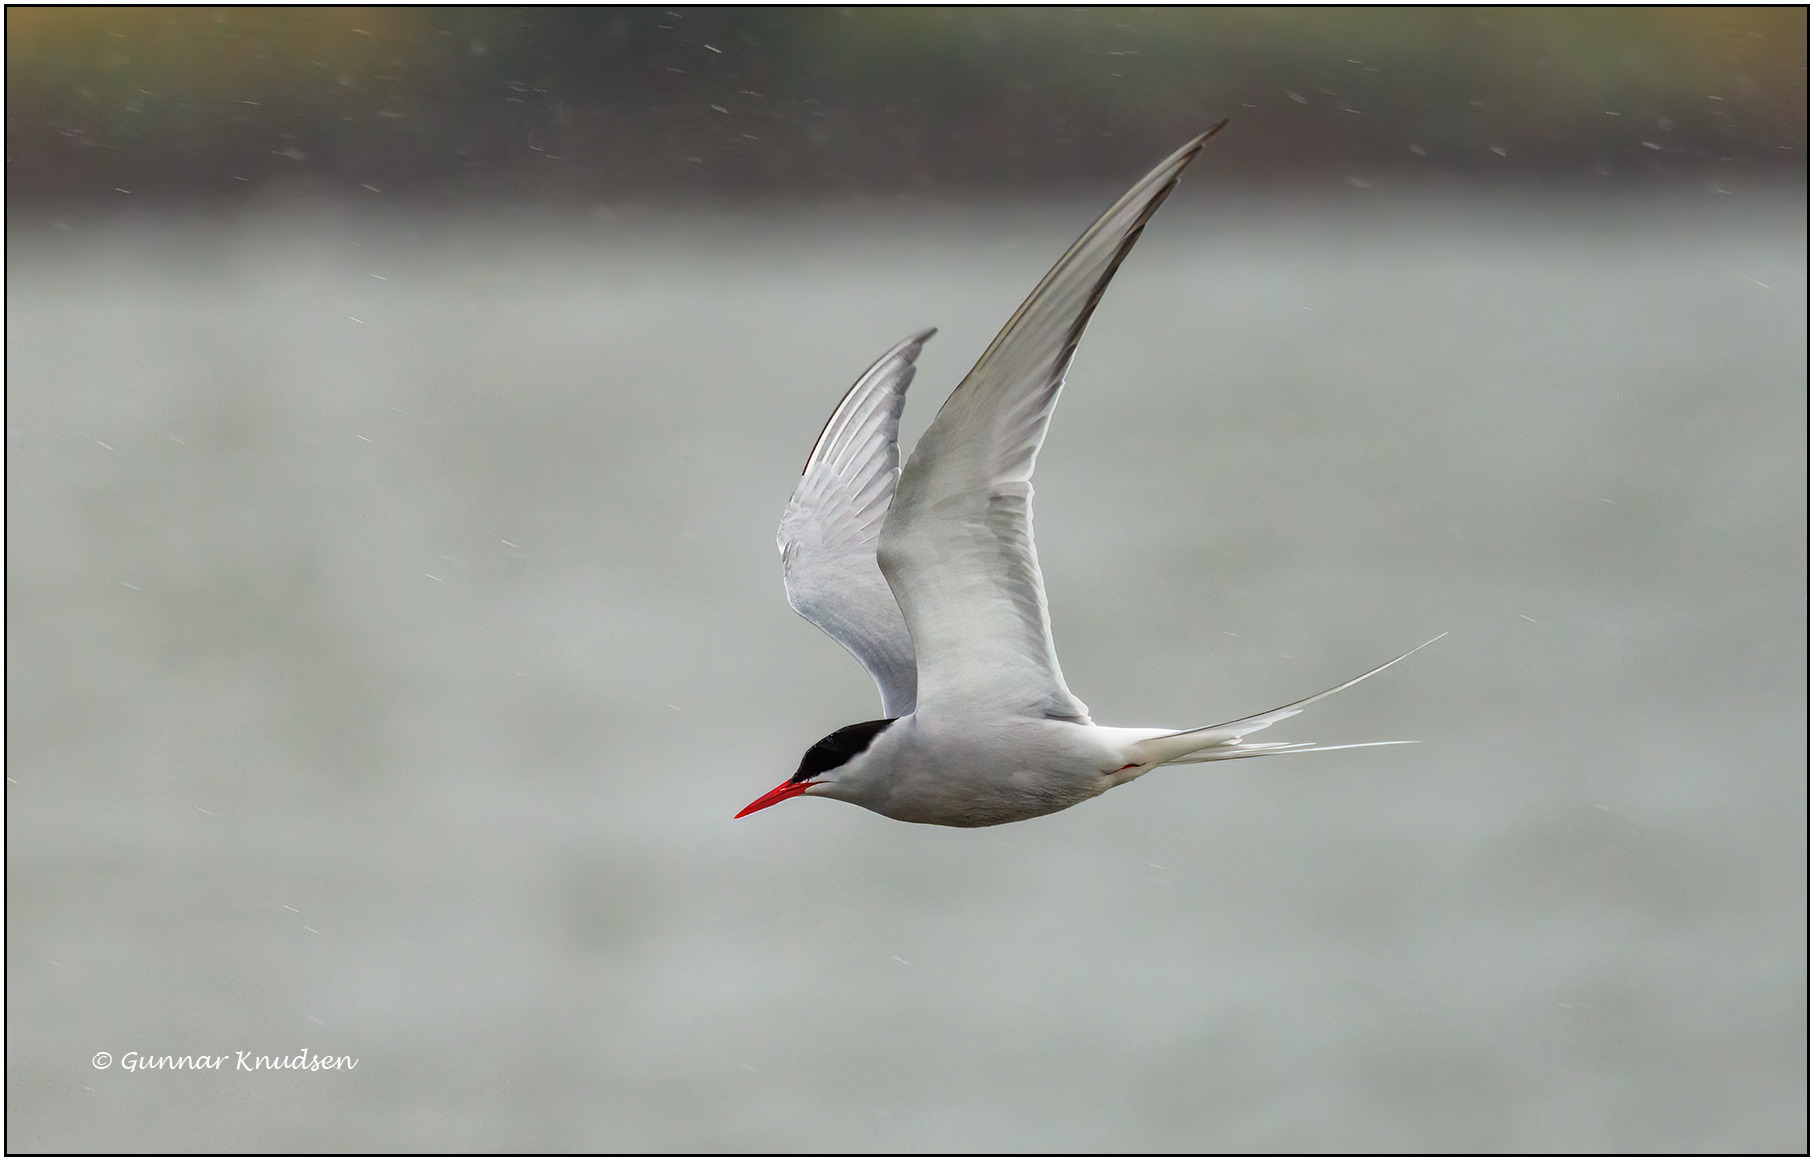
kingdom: Animalia
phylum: Chordata
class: Aves
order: Charadriiformes
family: Laridae
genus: Sterna
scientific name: Sterna paradisaea
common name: Havterne
